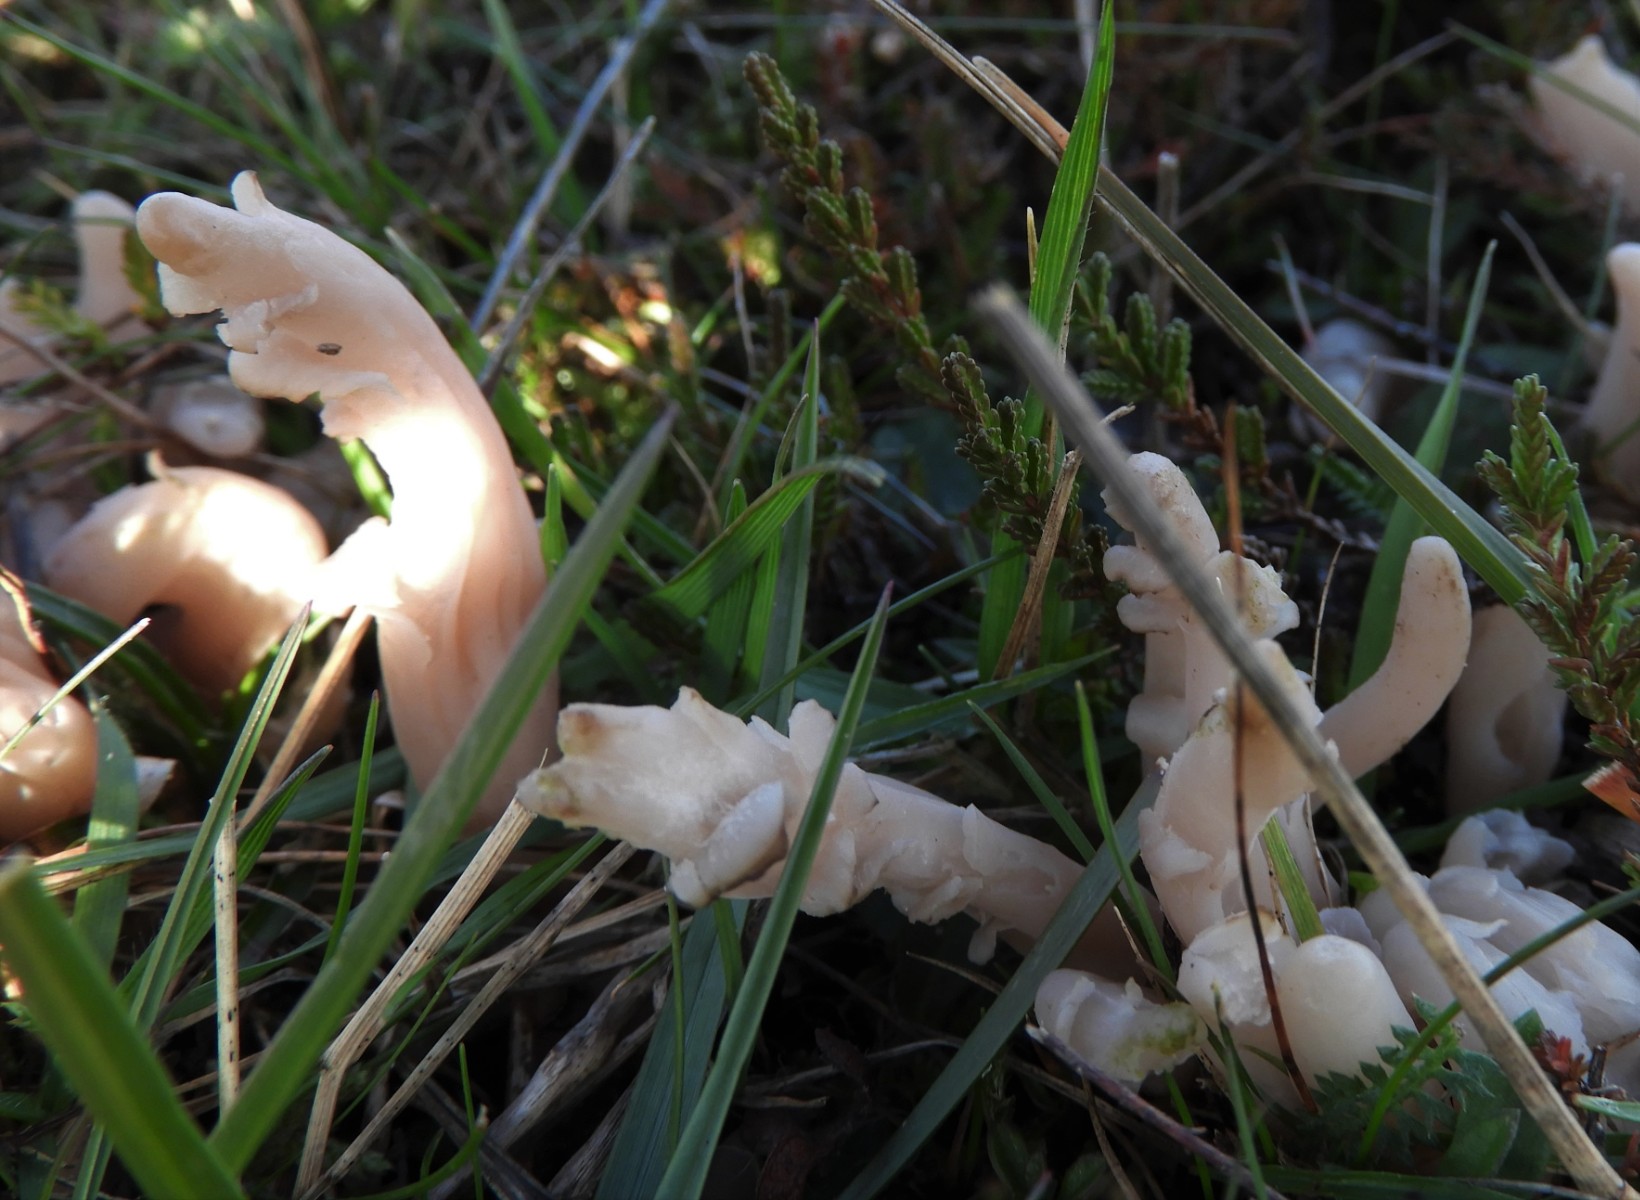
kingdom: Fungi
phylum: Basidiomycota
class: Agaricomycetes
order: Agaricales
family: Clavariaceae
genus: Clavaria
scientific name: Clavaria fumosa
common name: røggrå køllesvamp
